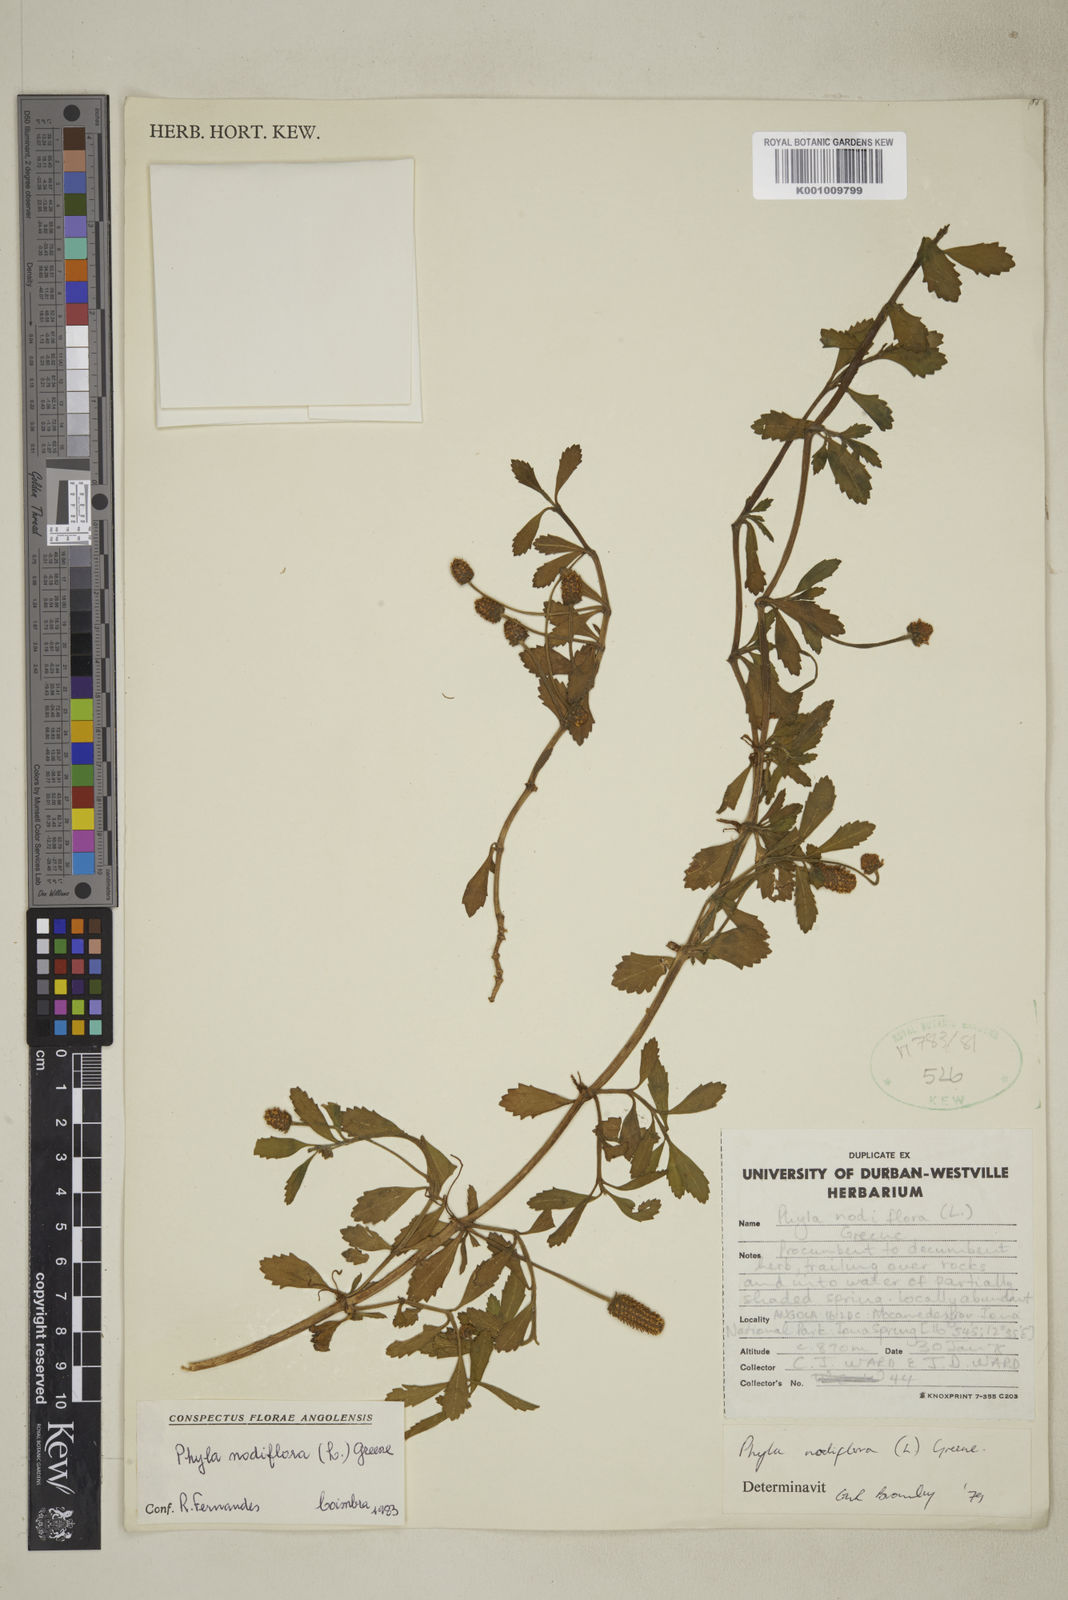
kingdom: Plantae
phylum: Tracheophyta
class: Magnoliopsida
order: Lamiales
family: Verbenaceae
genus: Phyla
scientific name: Phyla nodiflora
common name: Frogfruit
